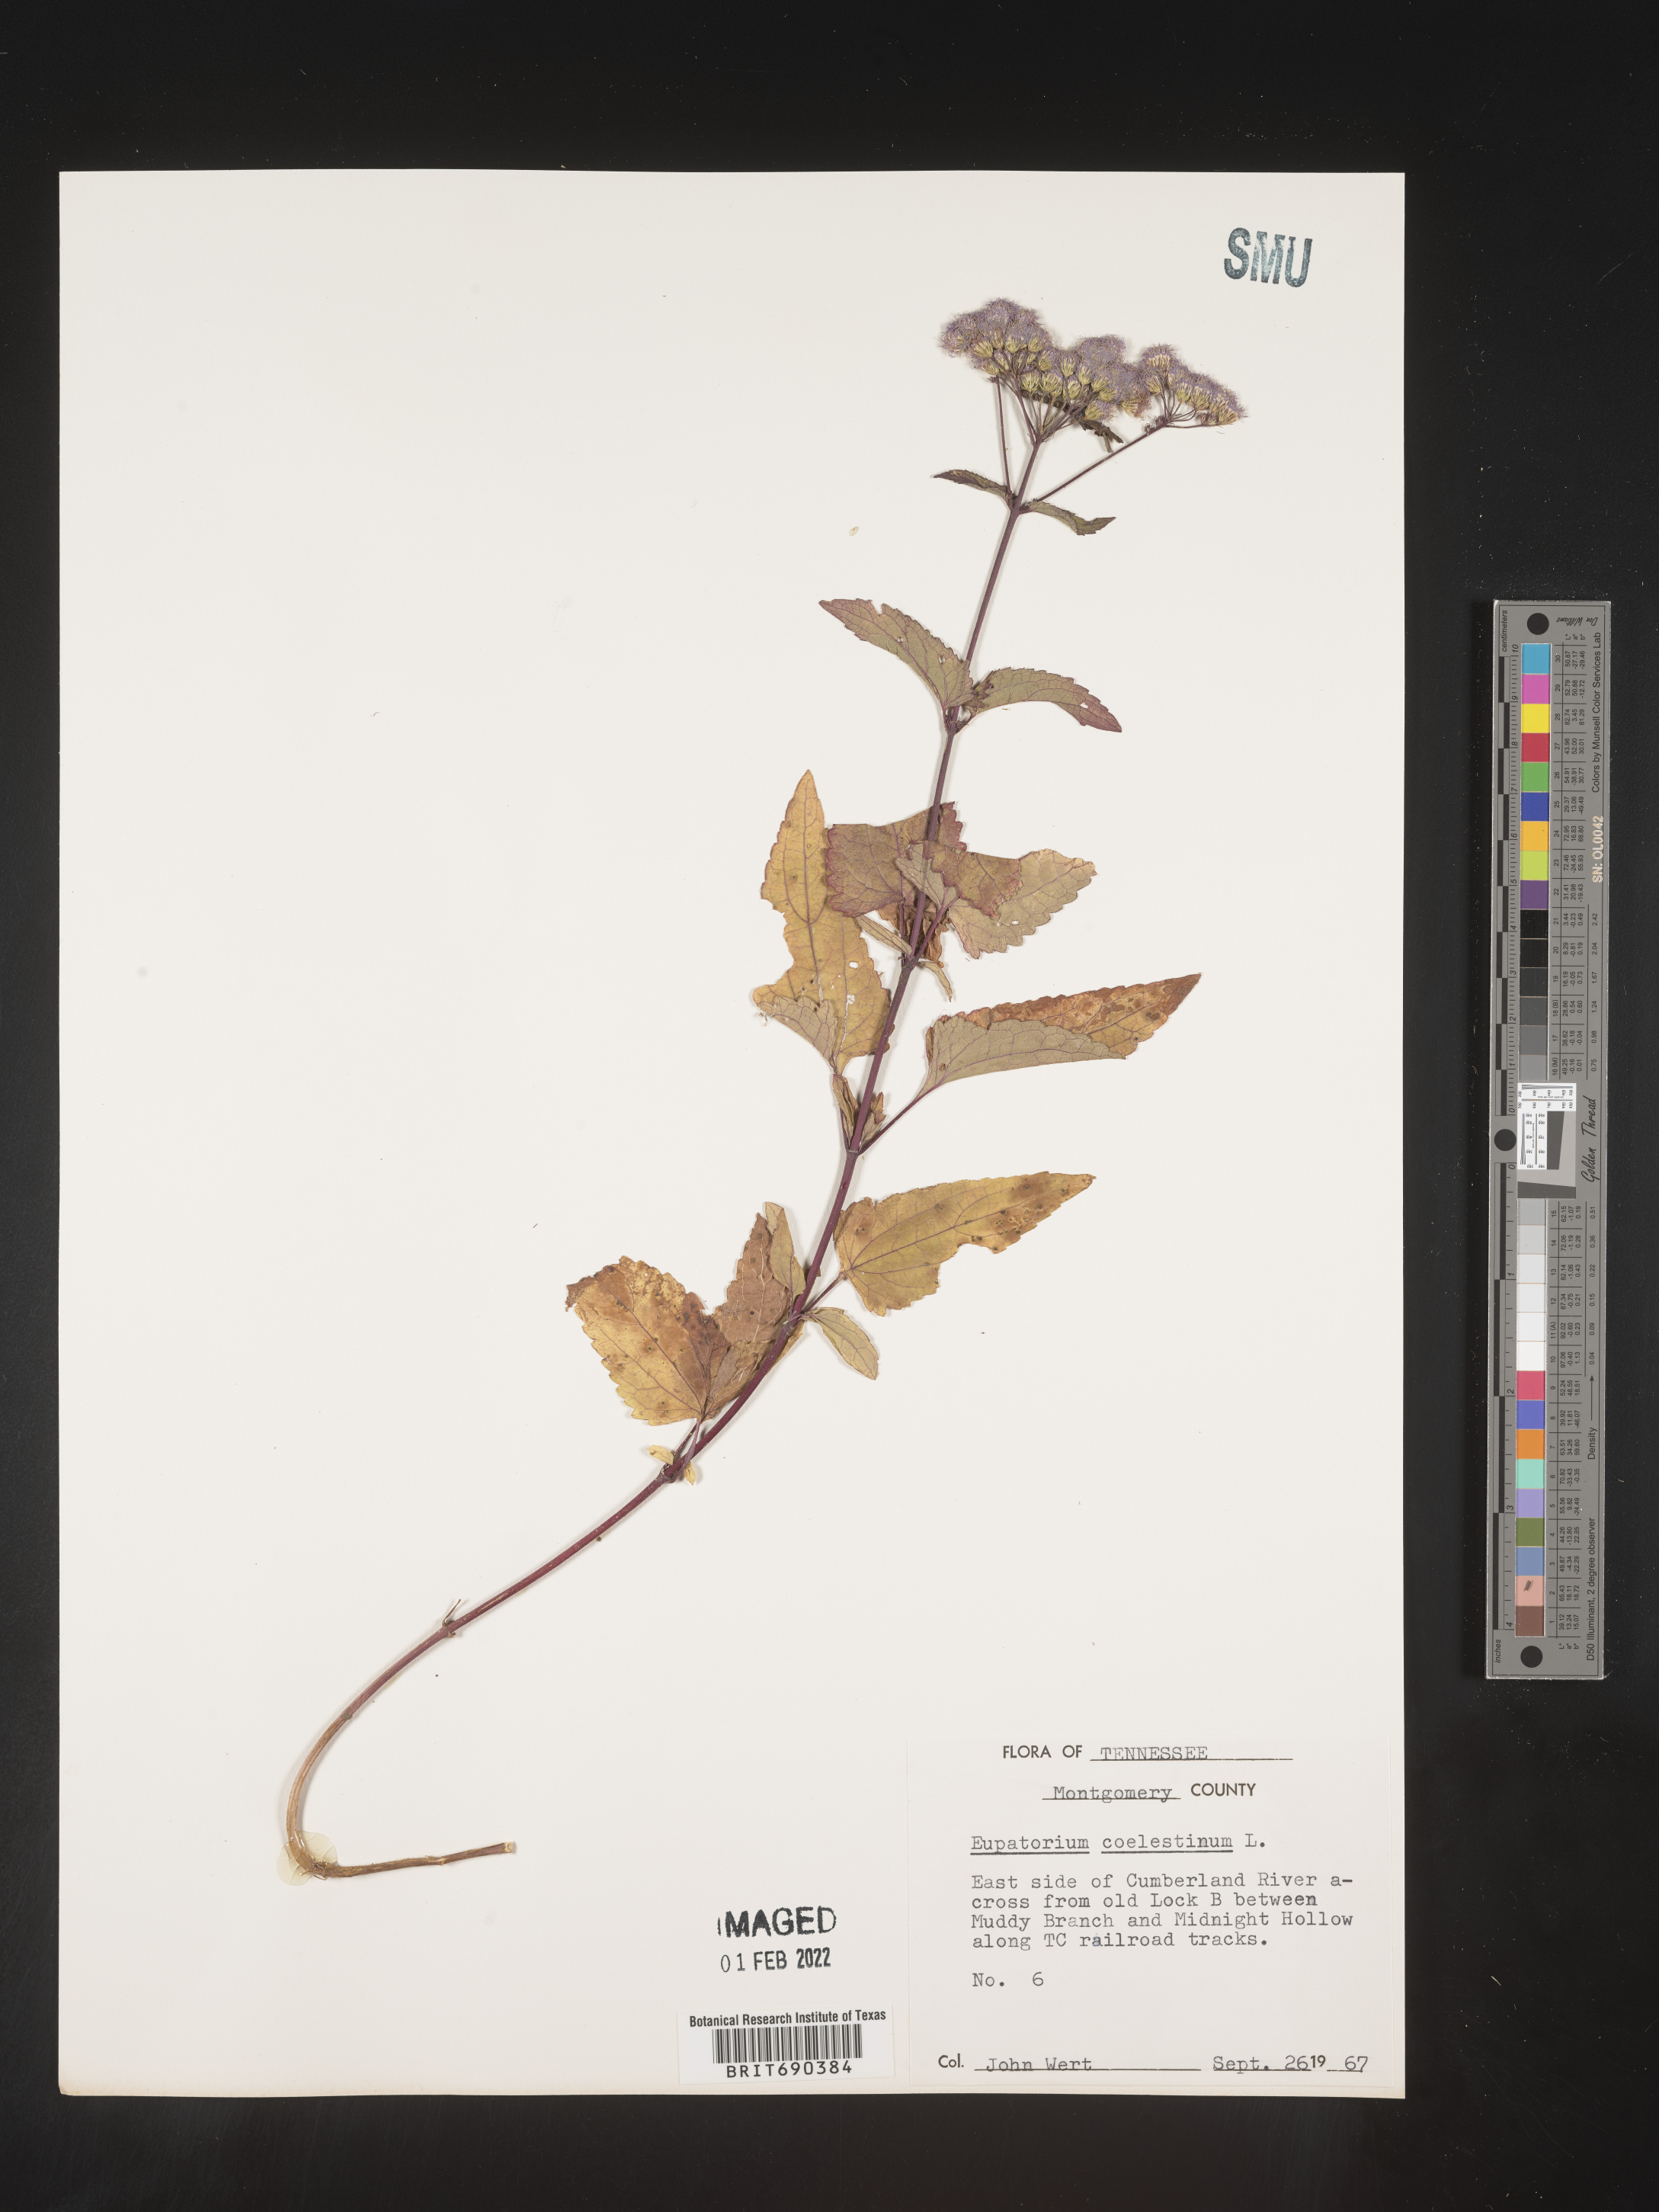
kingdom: Plantae
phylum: Tracheophyta
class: Magnoliopsida
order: Asterales
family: Asteraceae
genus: Conoclinium
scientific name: Conoclinium coelestinum
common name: Blue mistflower
